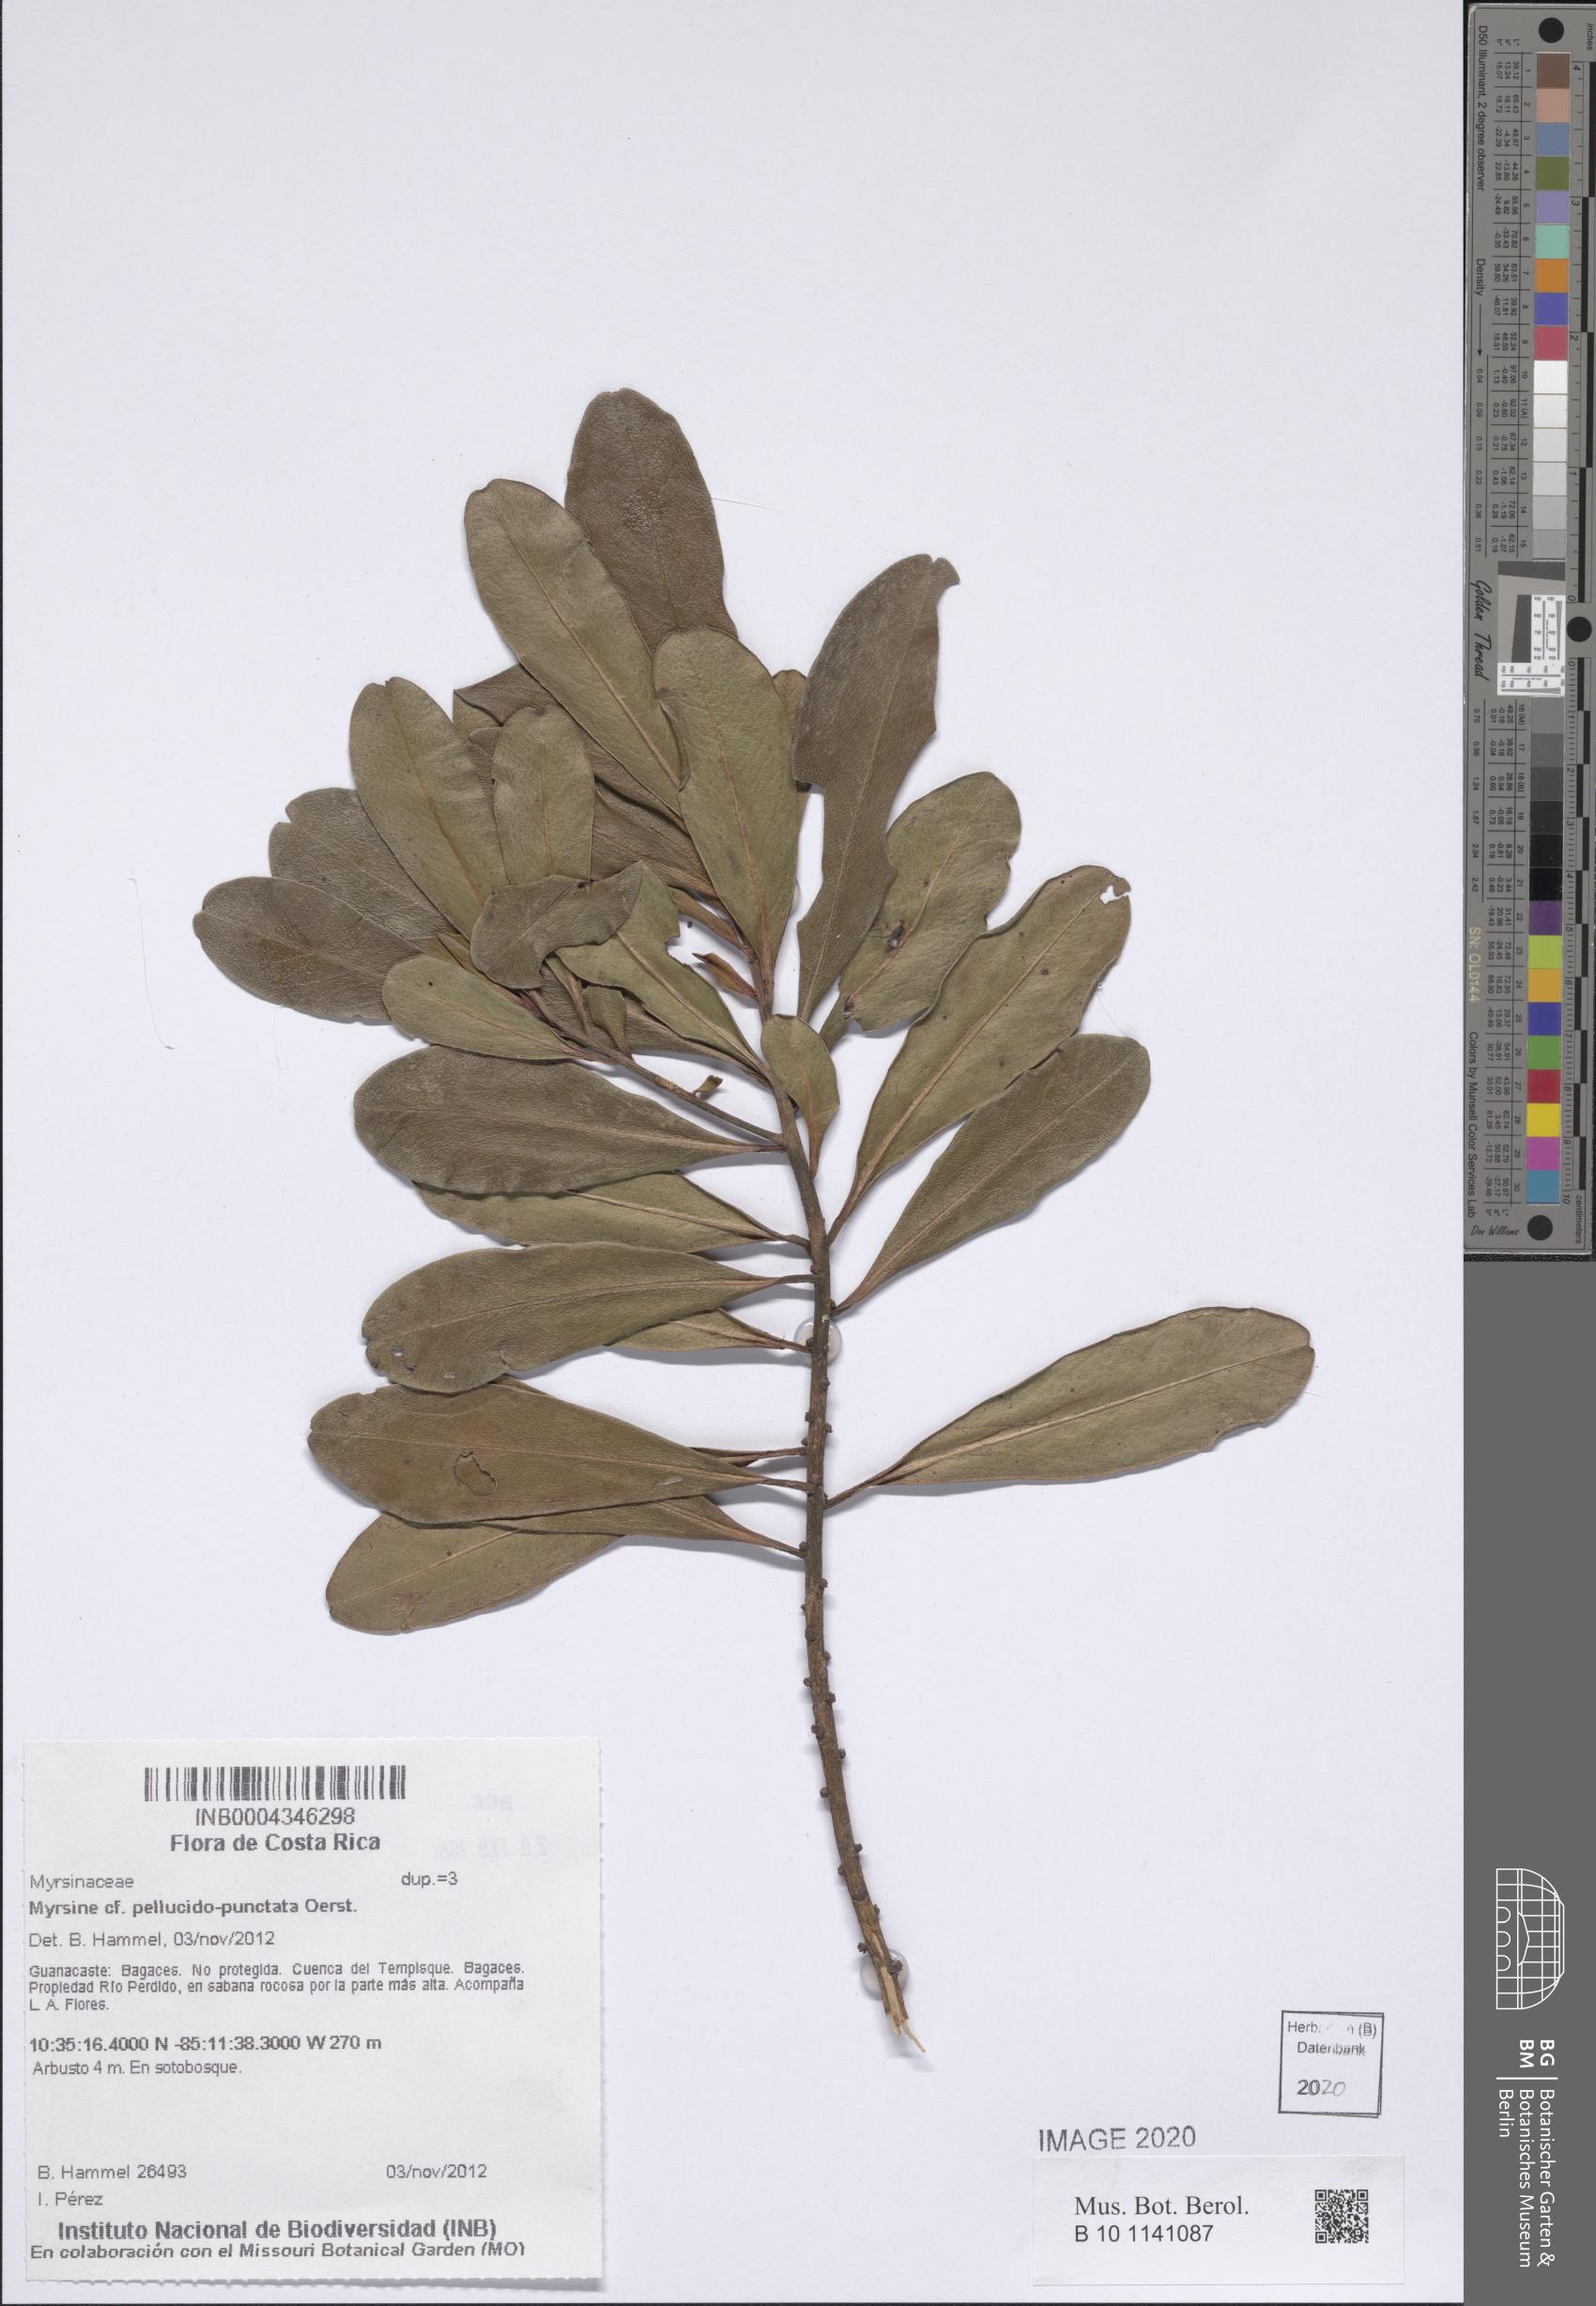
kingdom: Plantae
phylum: Tracheophyta
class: Magnoliopsida
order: Ericales
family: Primulaceae
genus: Myrsine
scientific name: Myrsine pellucidopunctata
